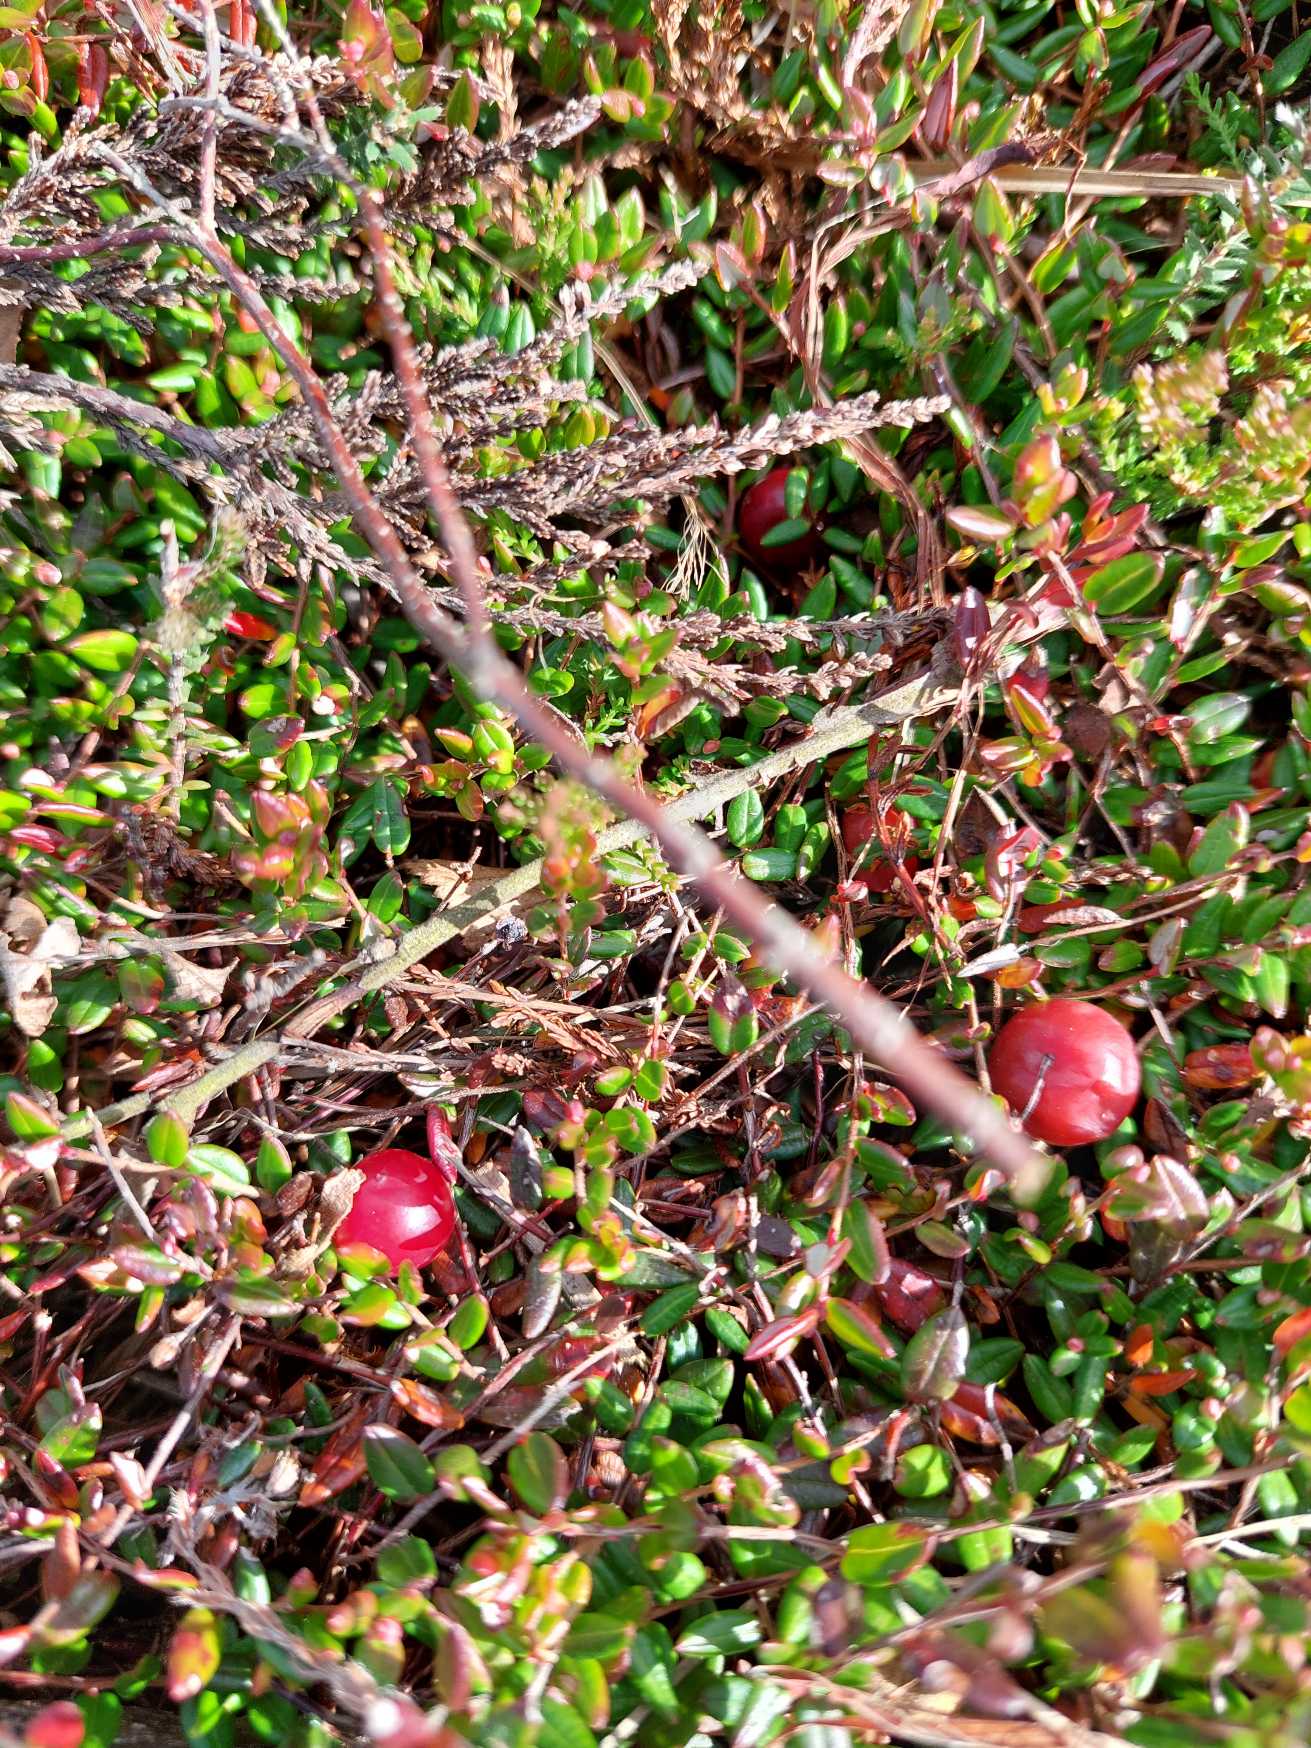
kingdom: Plantae
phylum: Tracheophyta
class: Magnoliopsida
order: Ericales
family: Ericaceae
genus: Vaccinium
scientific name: Vaccinium oxycoccos
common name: Tranebær
